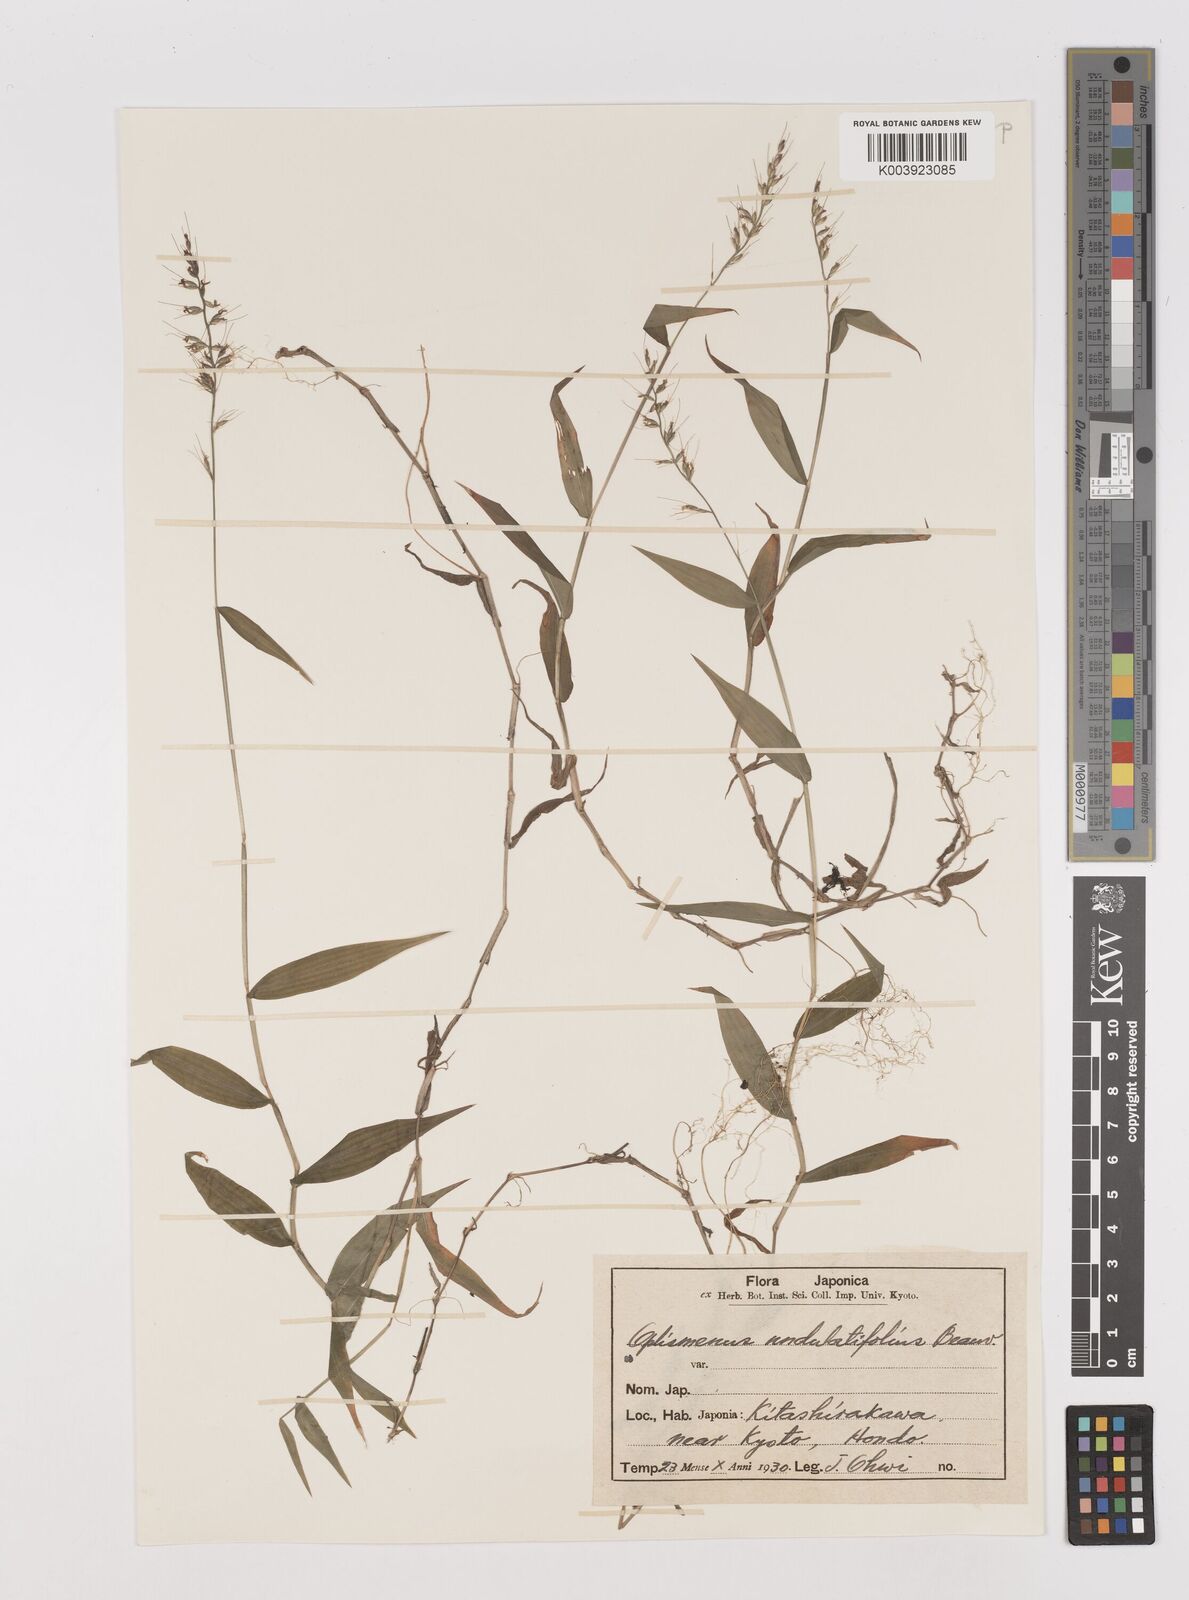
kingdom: Plantae
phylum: Tracheophyta
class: Liliopsida
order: Poales
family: Poaceae
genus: Oplismenus
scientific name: Oplismenus undulatifolius
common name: Wavyleaf basketgrass
